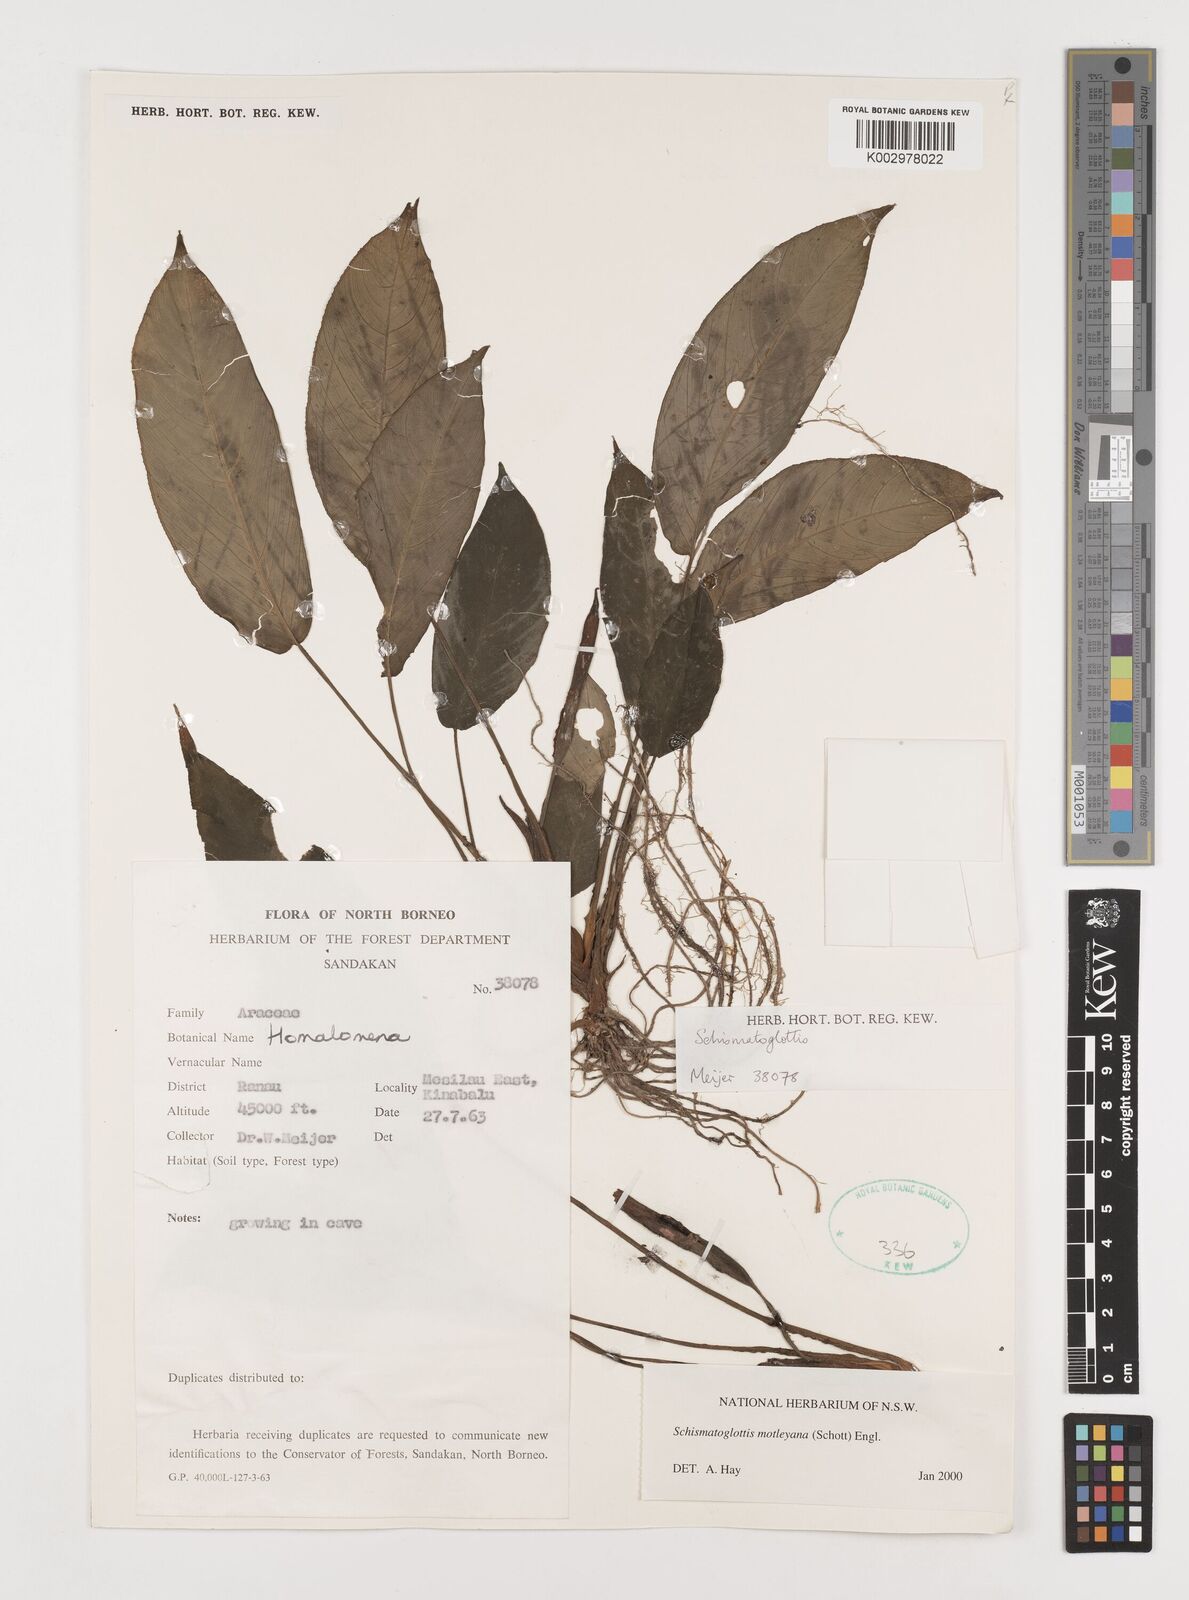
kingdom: Plantae
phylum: Tracheophyta
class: Liliopsida
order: Alismatales
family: Araceae
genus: Schismatoglottis
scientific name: Schismatoglottis motleyana
